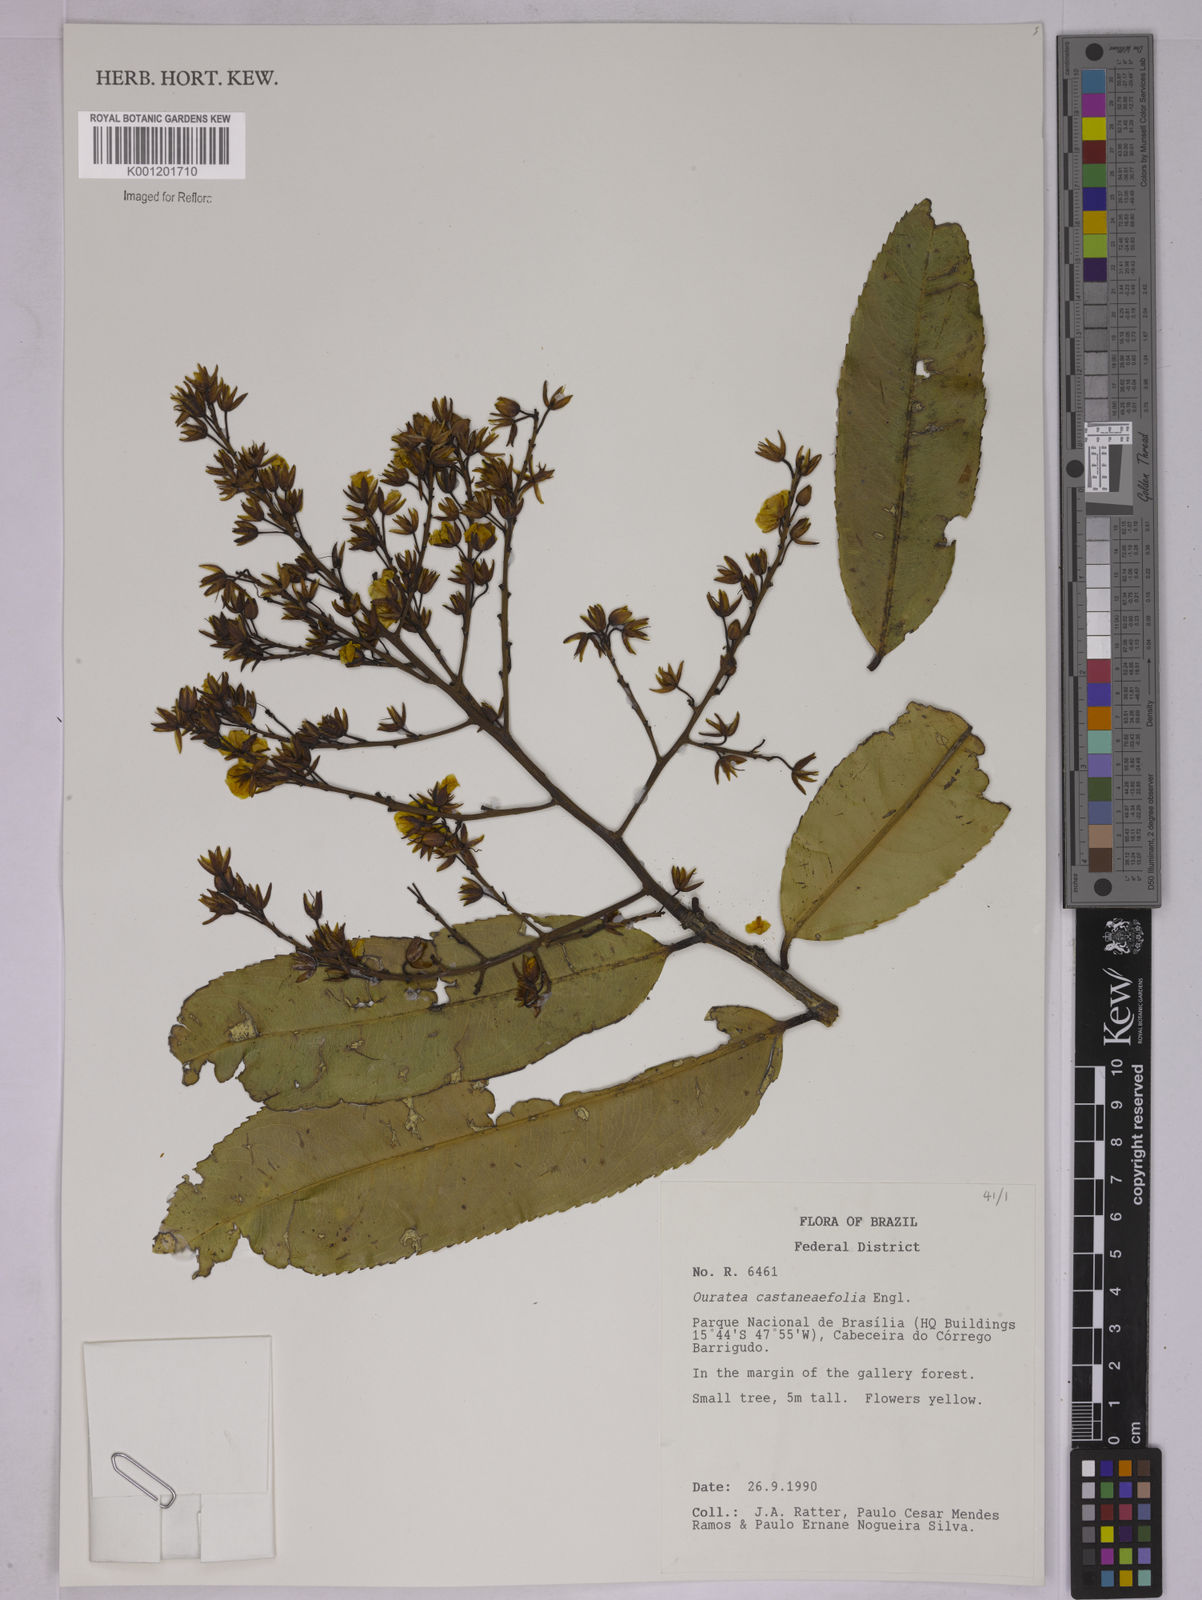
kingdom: Plantae
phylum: Tracheophyta
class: Magnoliopsida
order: Malpighiales
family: Ochnaceae
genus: Ouratea
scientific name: Ouratea castaneifolia
